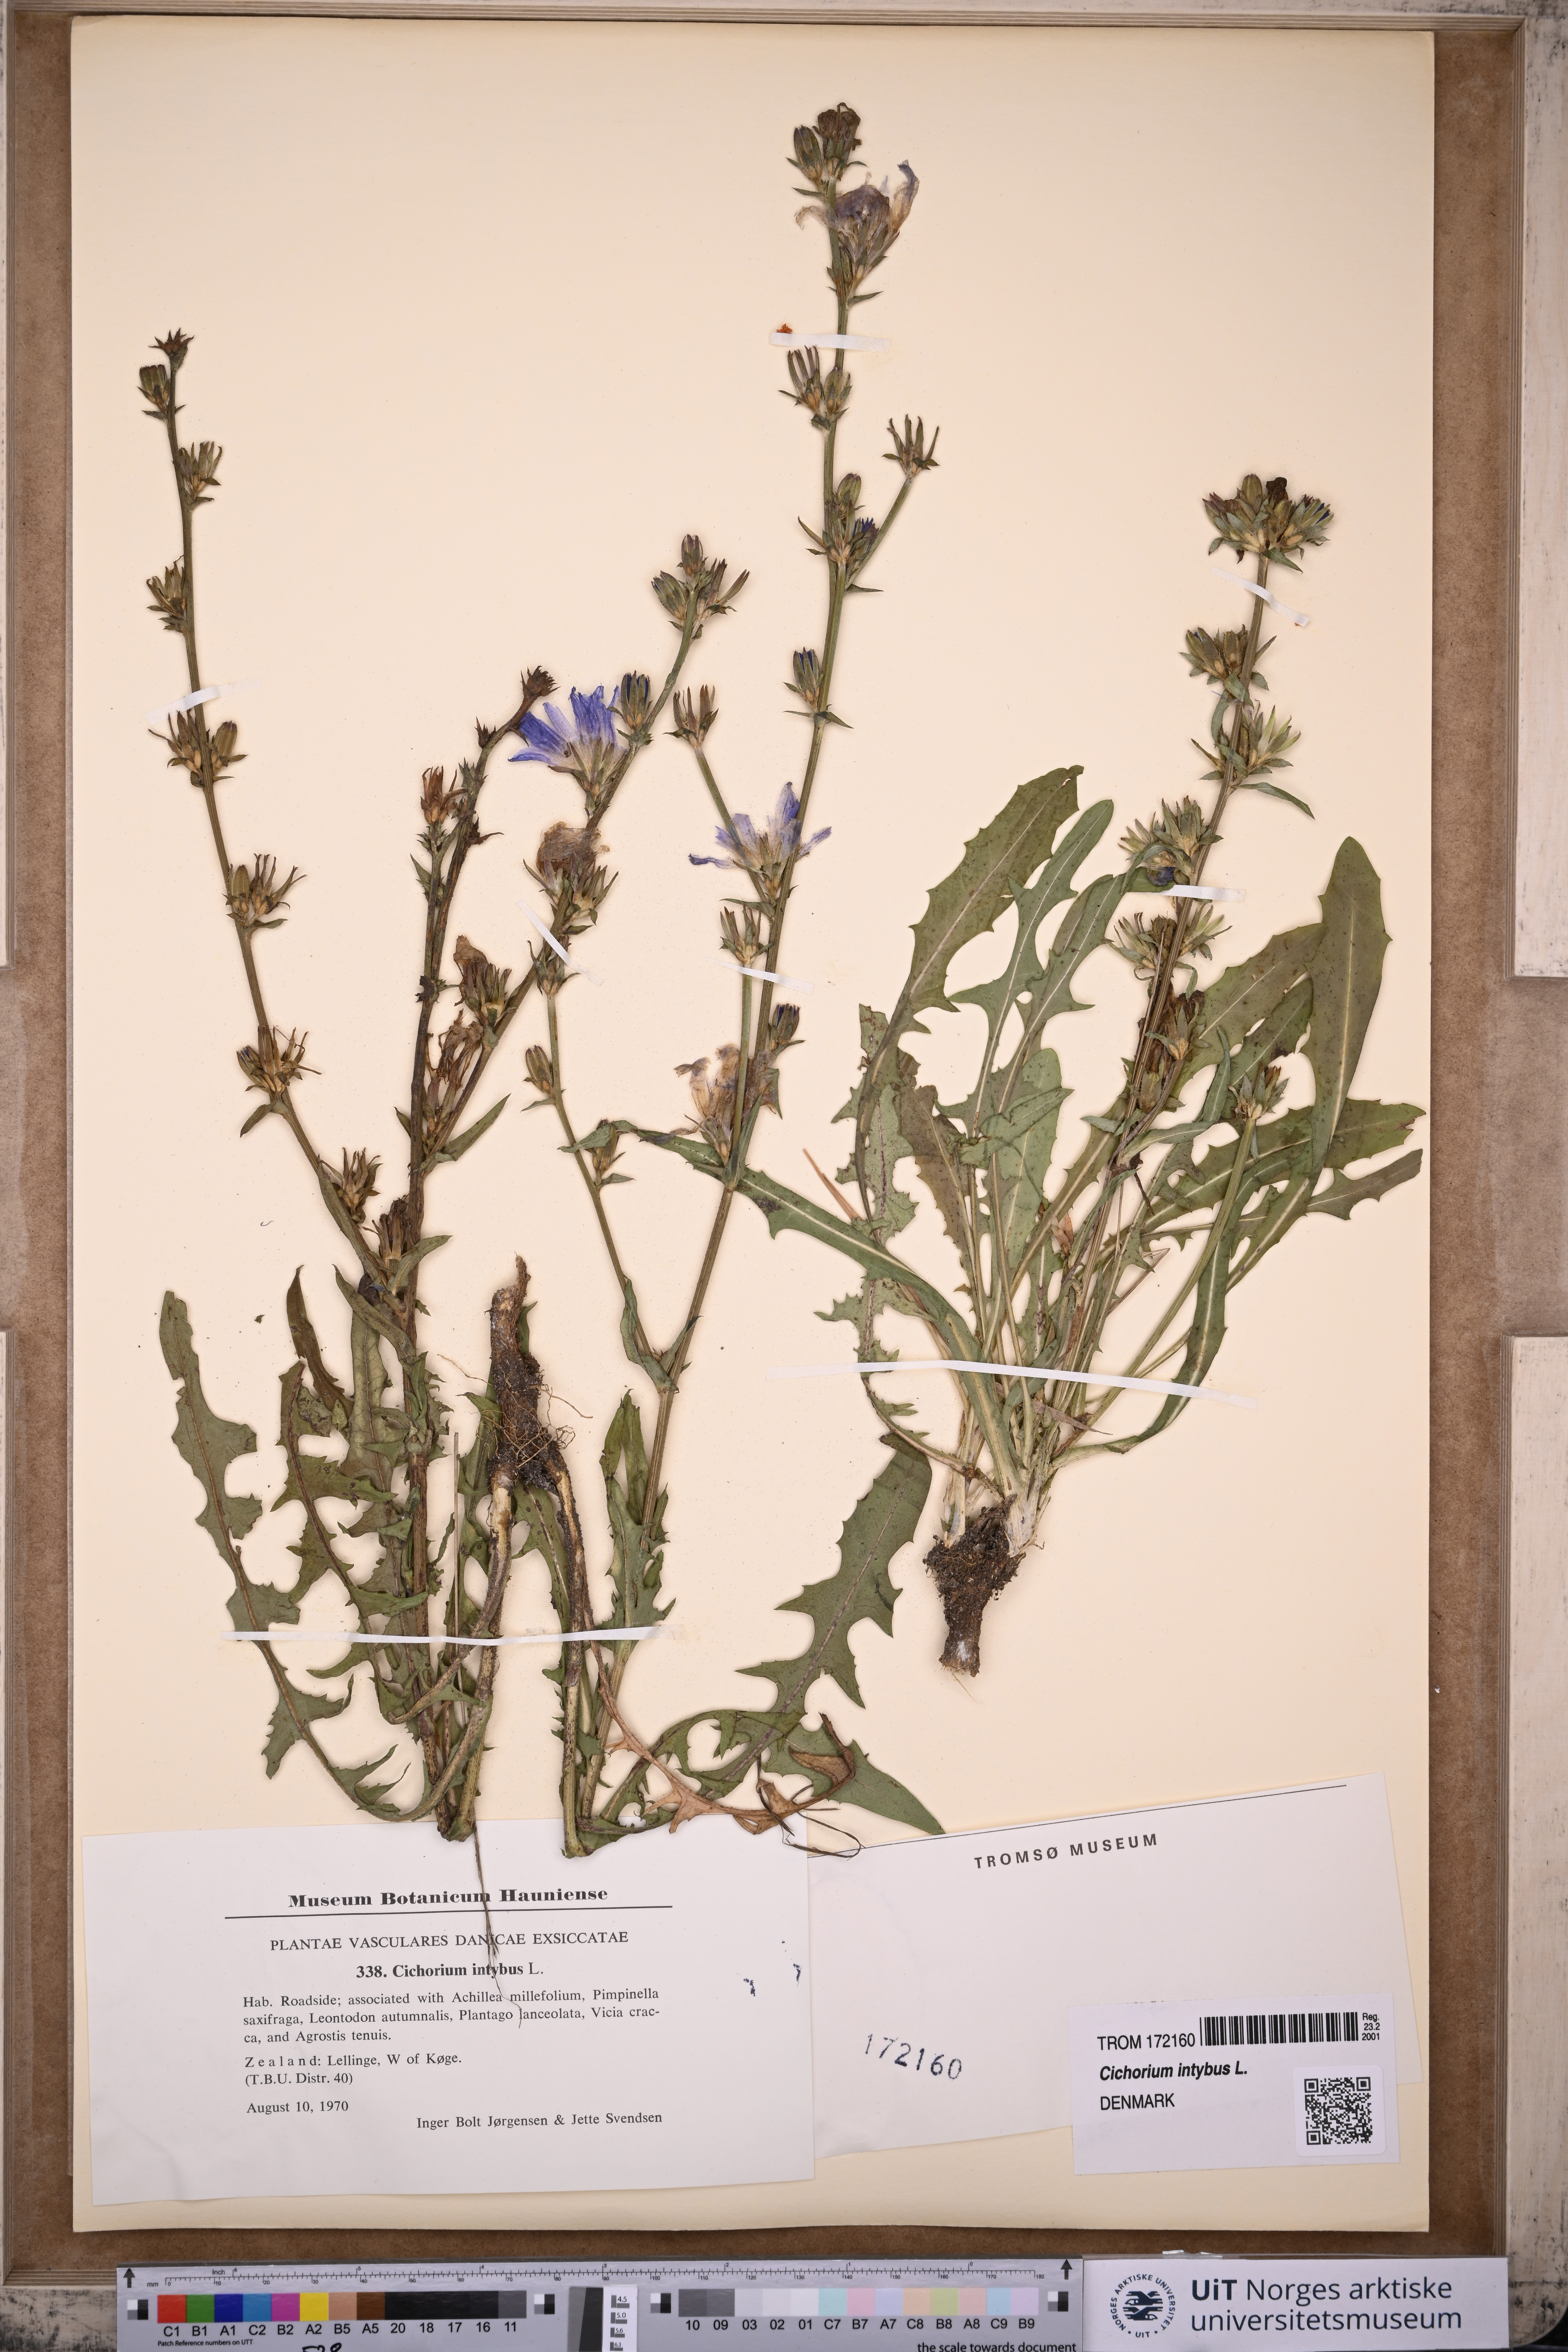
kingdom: Plantae
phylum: Tracheophyta
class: Magnoliopsida
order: Asterales
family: Asteraceae
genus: Cichorium
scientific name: Cichorium intybus
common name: Chicory
